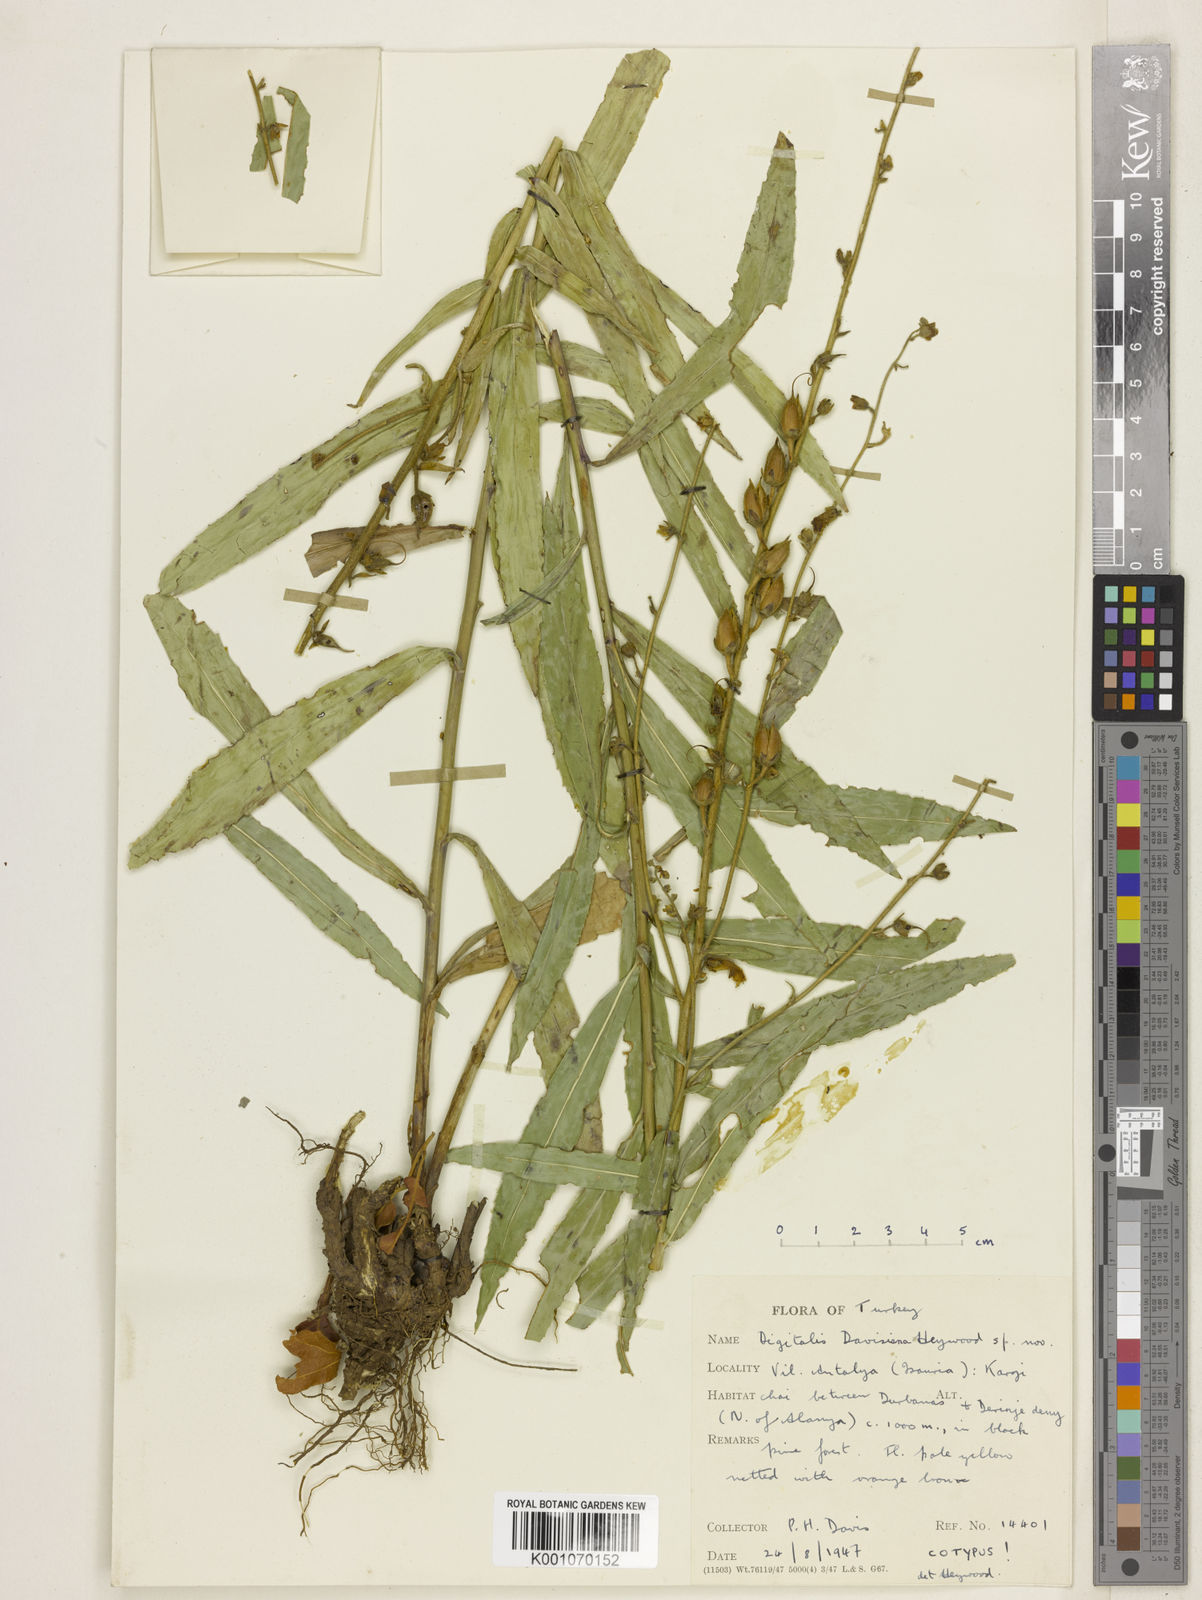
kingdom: Plantae
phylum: Tracheophyta
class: Magnoliopsida
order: Lamiales
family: Plantaginaceae
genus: Digitalis
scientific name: Digitalis davisiana
